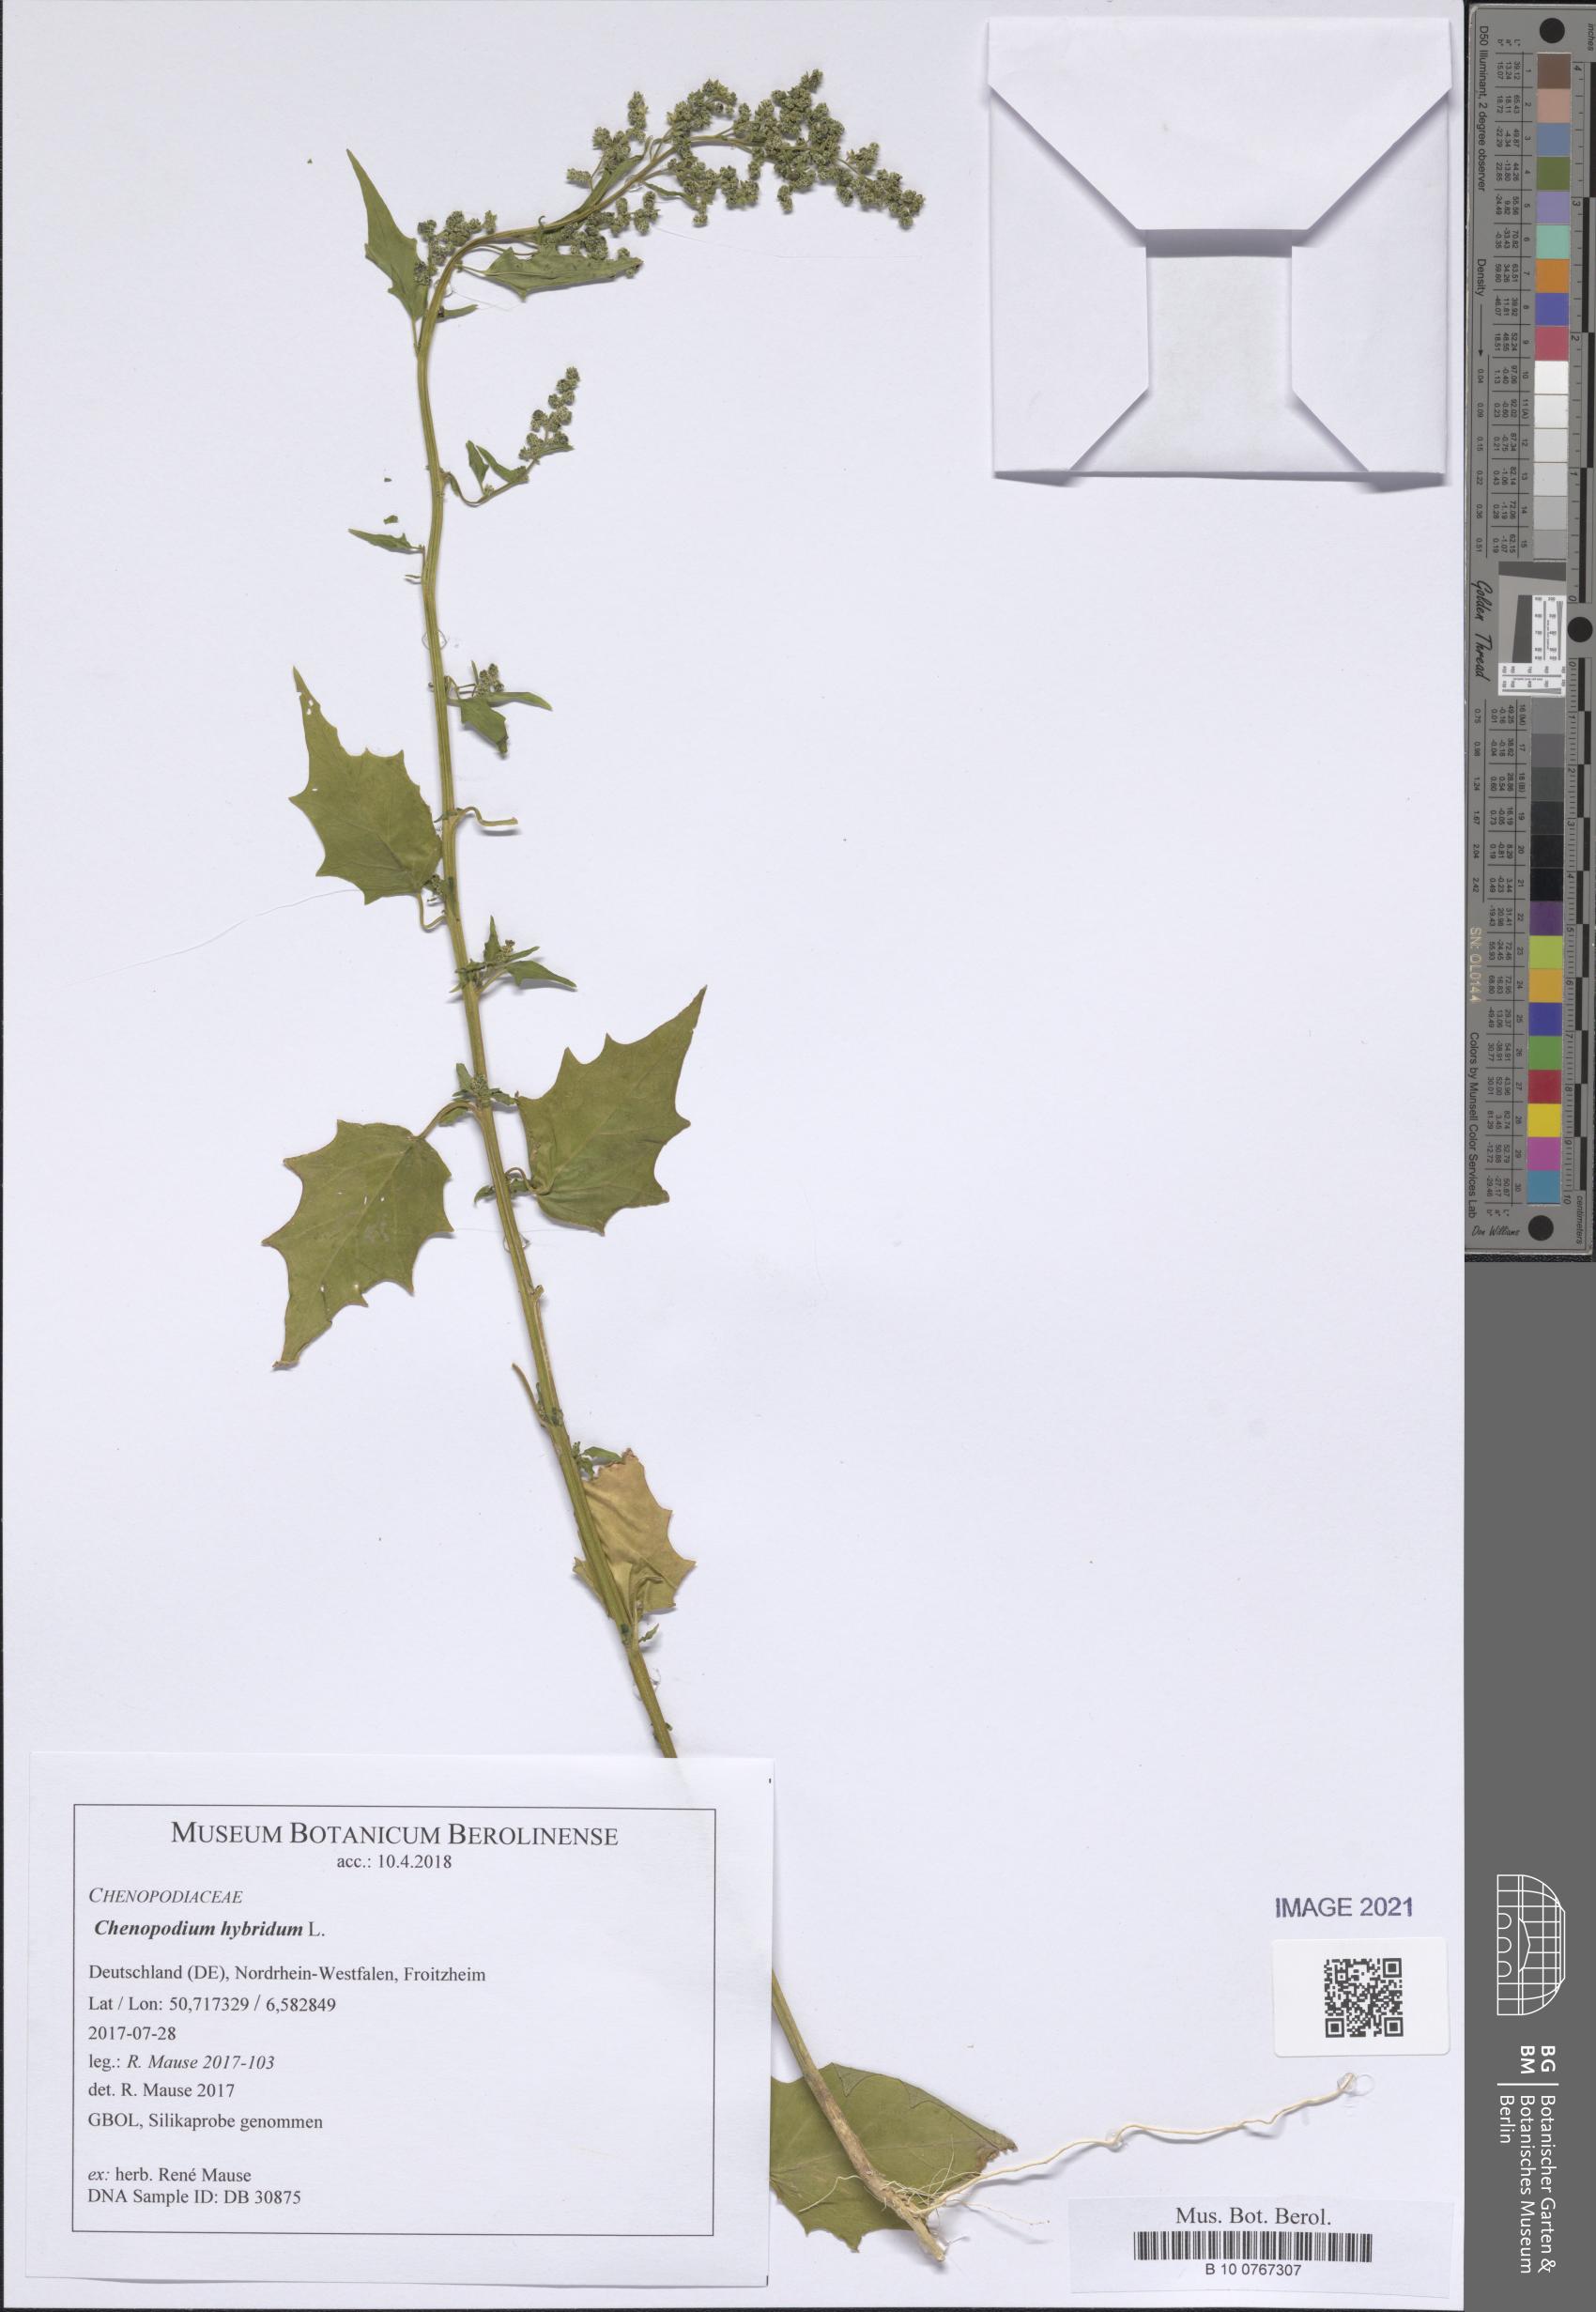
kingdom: Plantae
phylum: Tracheophyta
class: Magnoliopsida
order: Caryophyllales
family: Amaranthaceae
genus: Chenopodiastrum
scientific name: Chenopodiastrum hybridum
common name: Mapleleaf goosefoot
